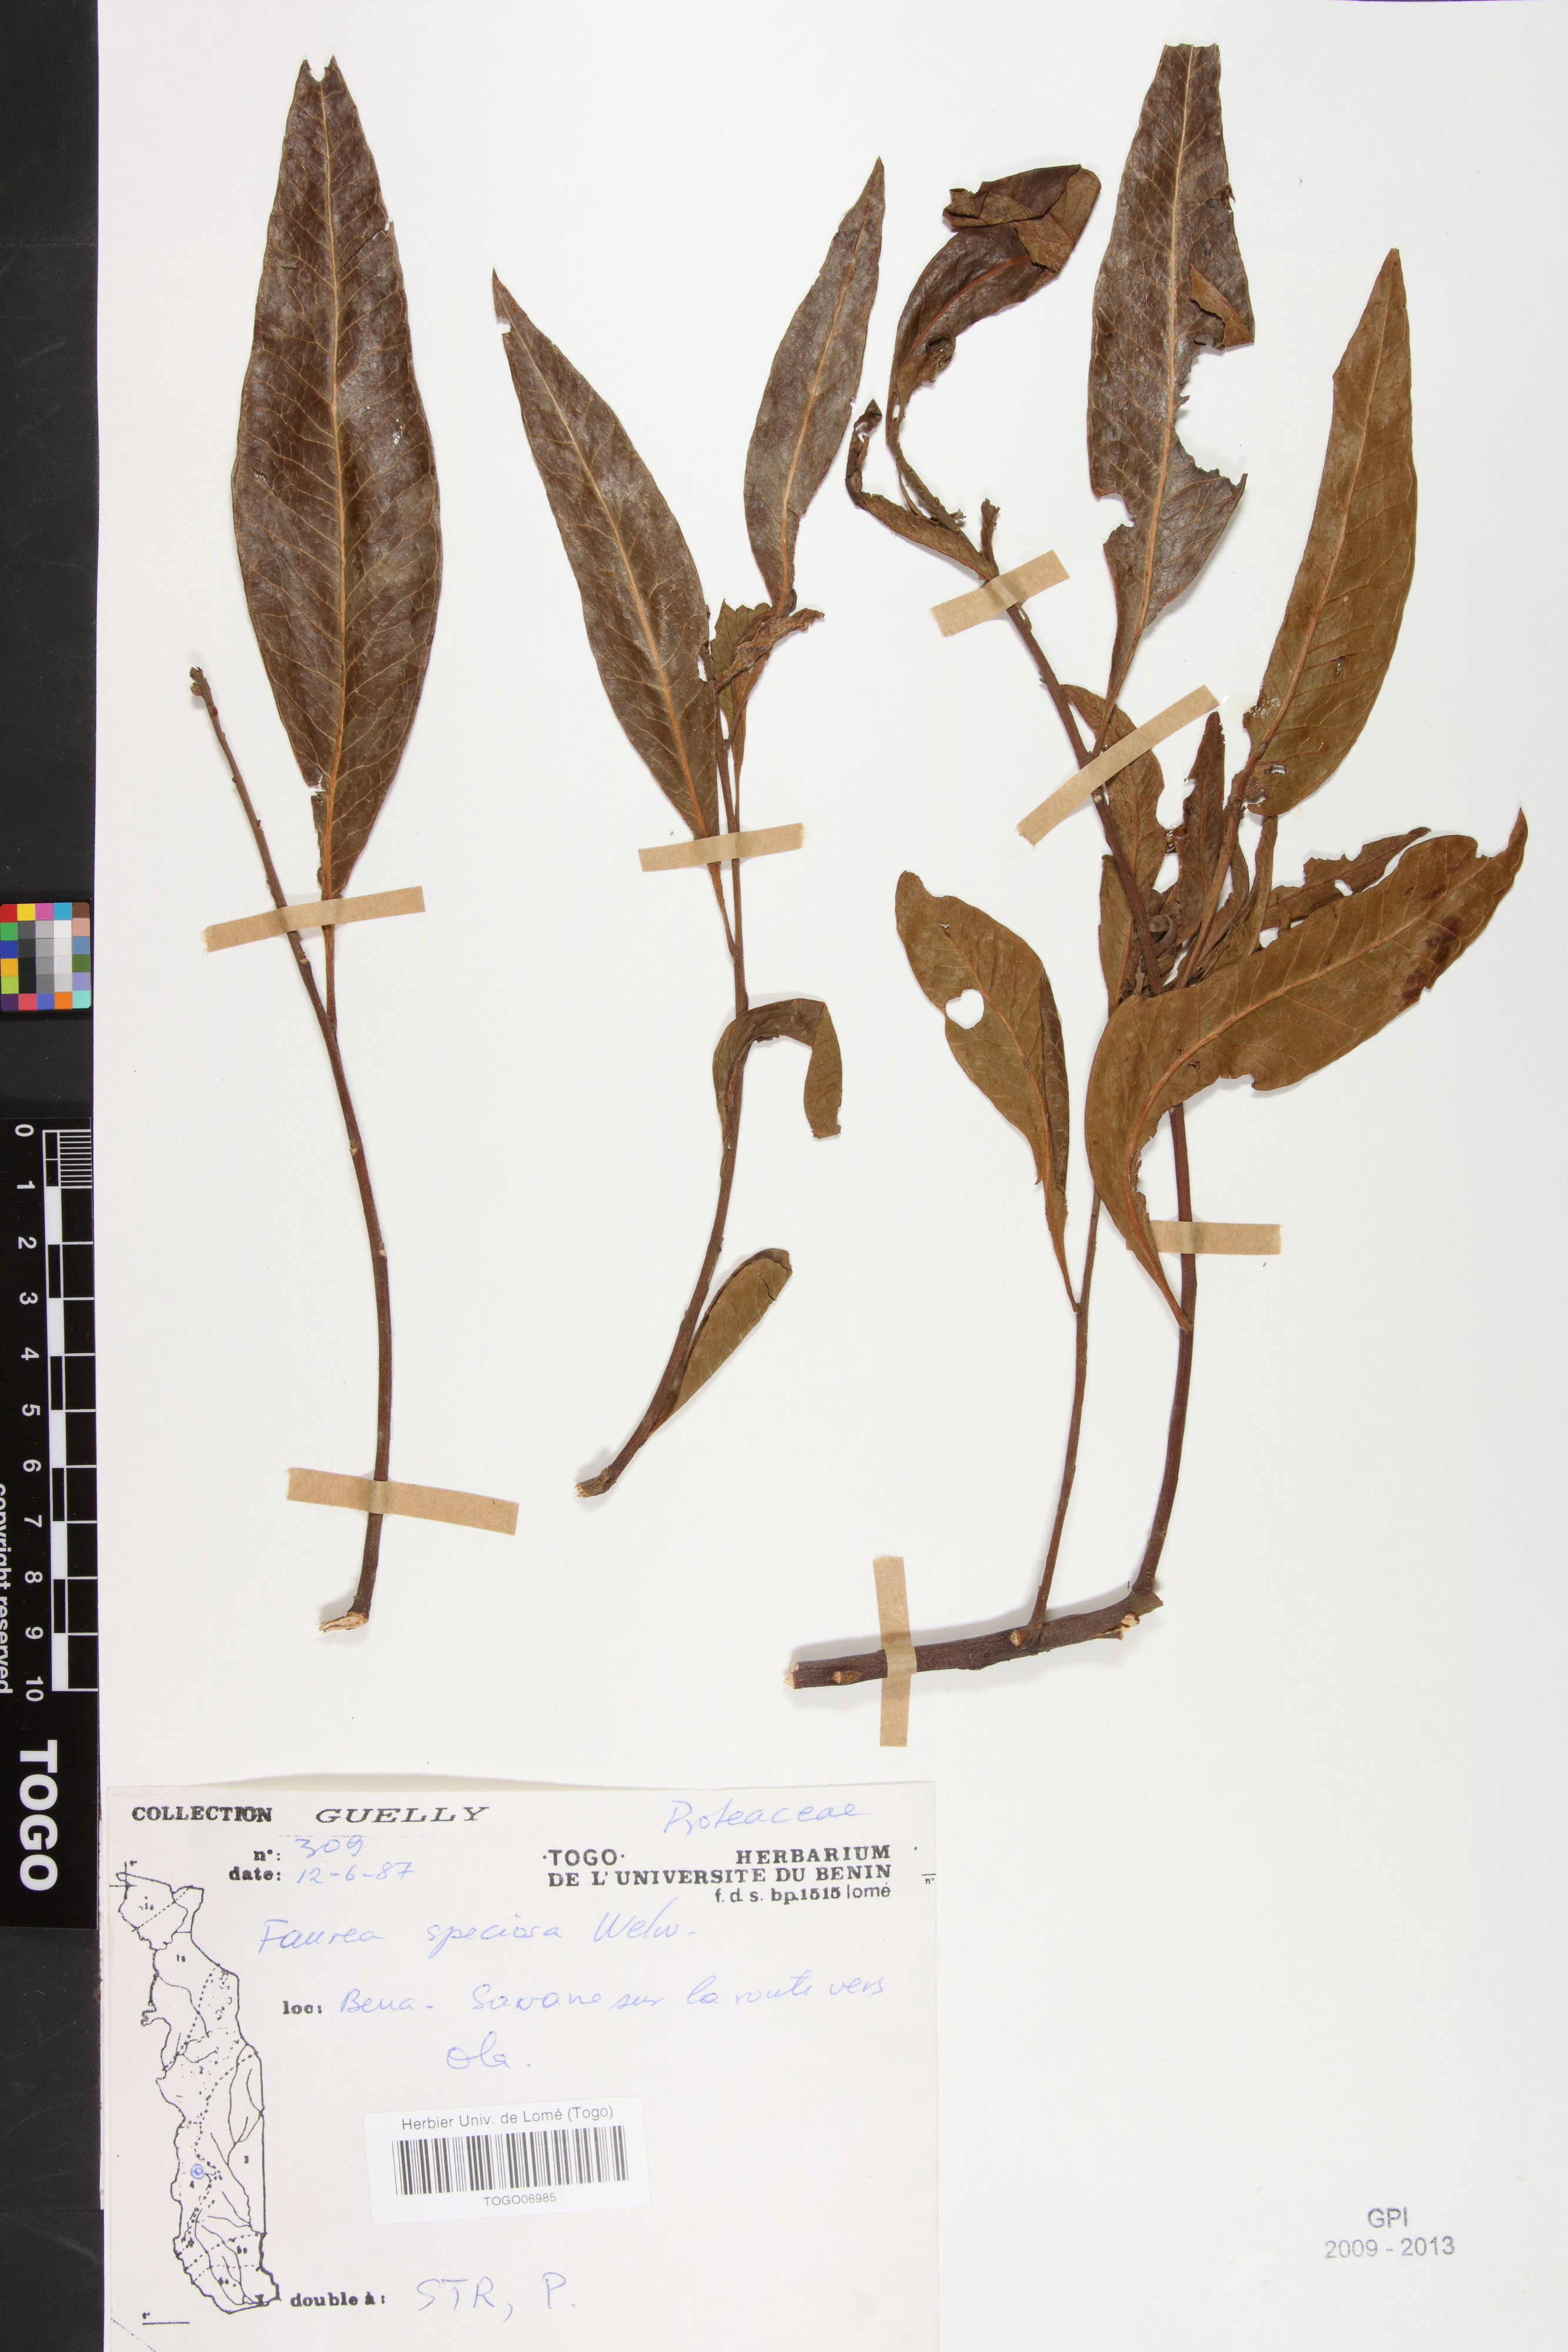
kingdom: Plantae
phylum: Tracheophyta
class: Magnoliopsida
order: Proteales
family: Proteaceae
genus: Faurea
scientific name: Faurea rochetiana
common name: Broad-leaved beech
